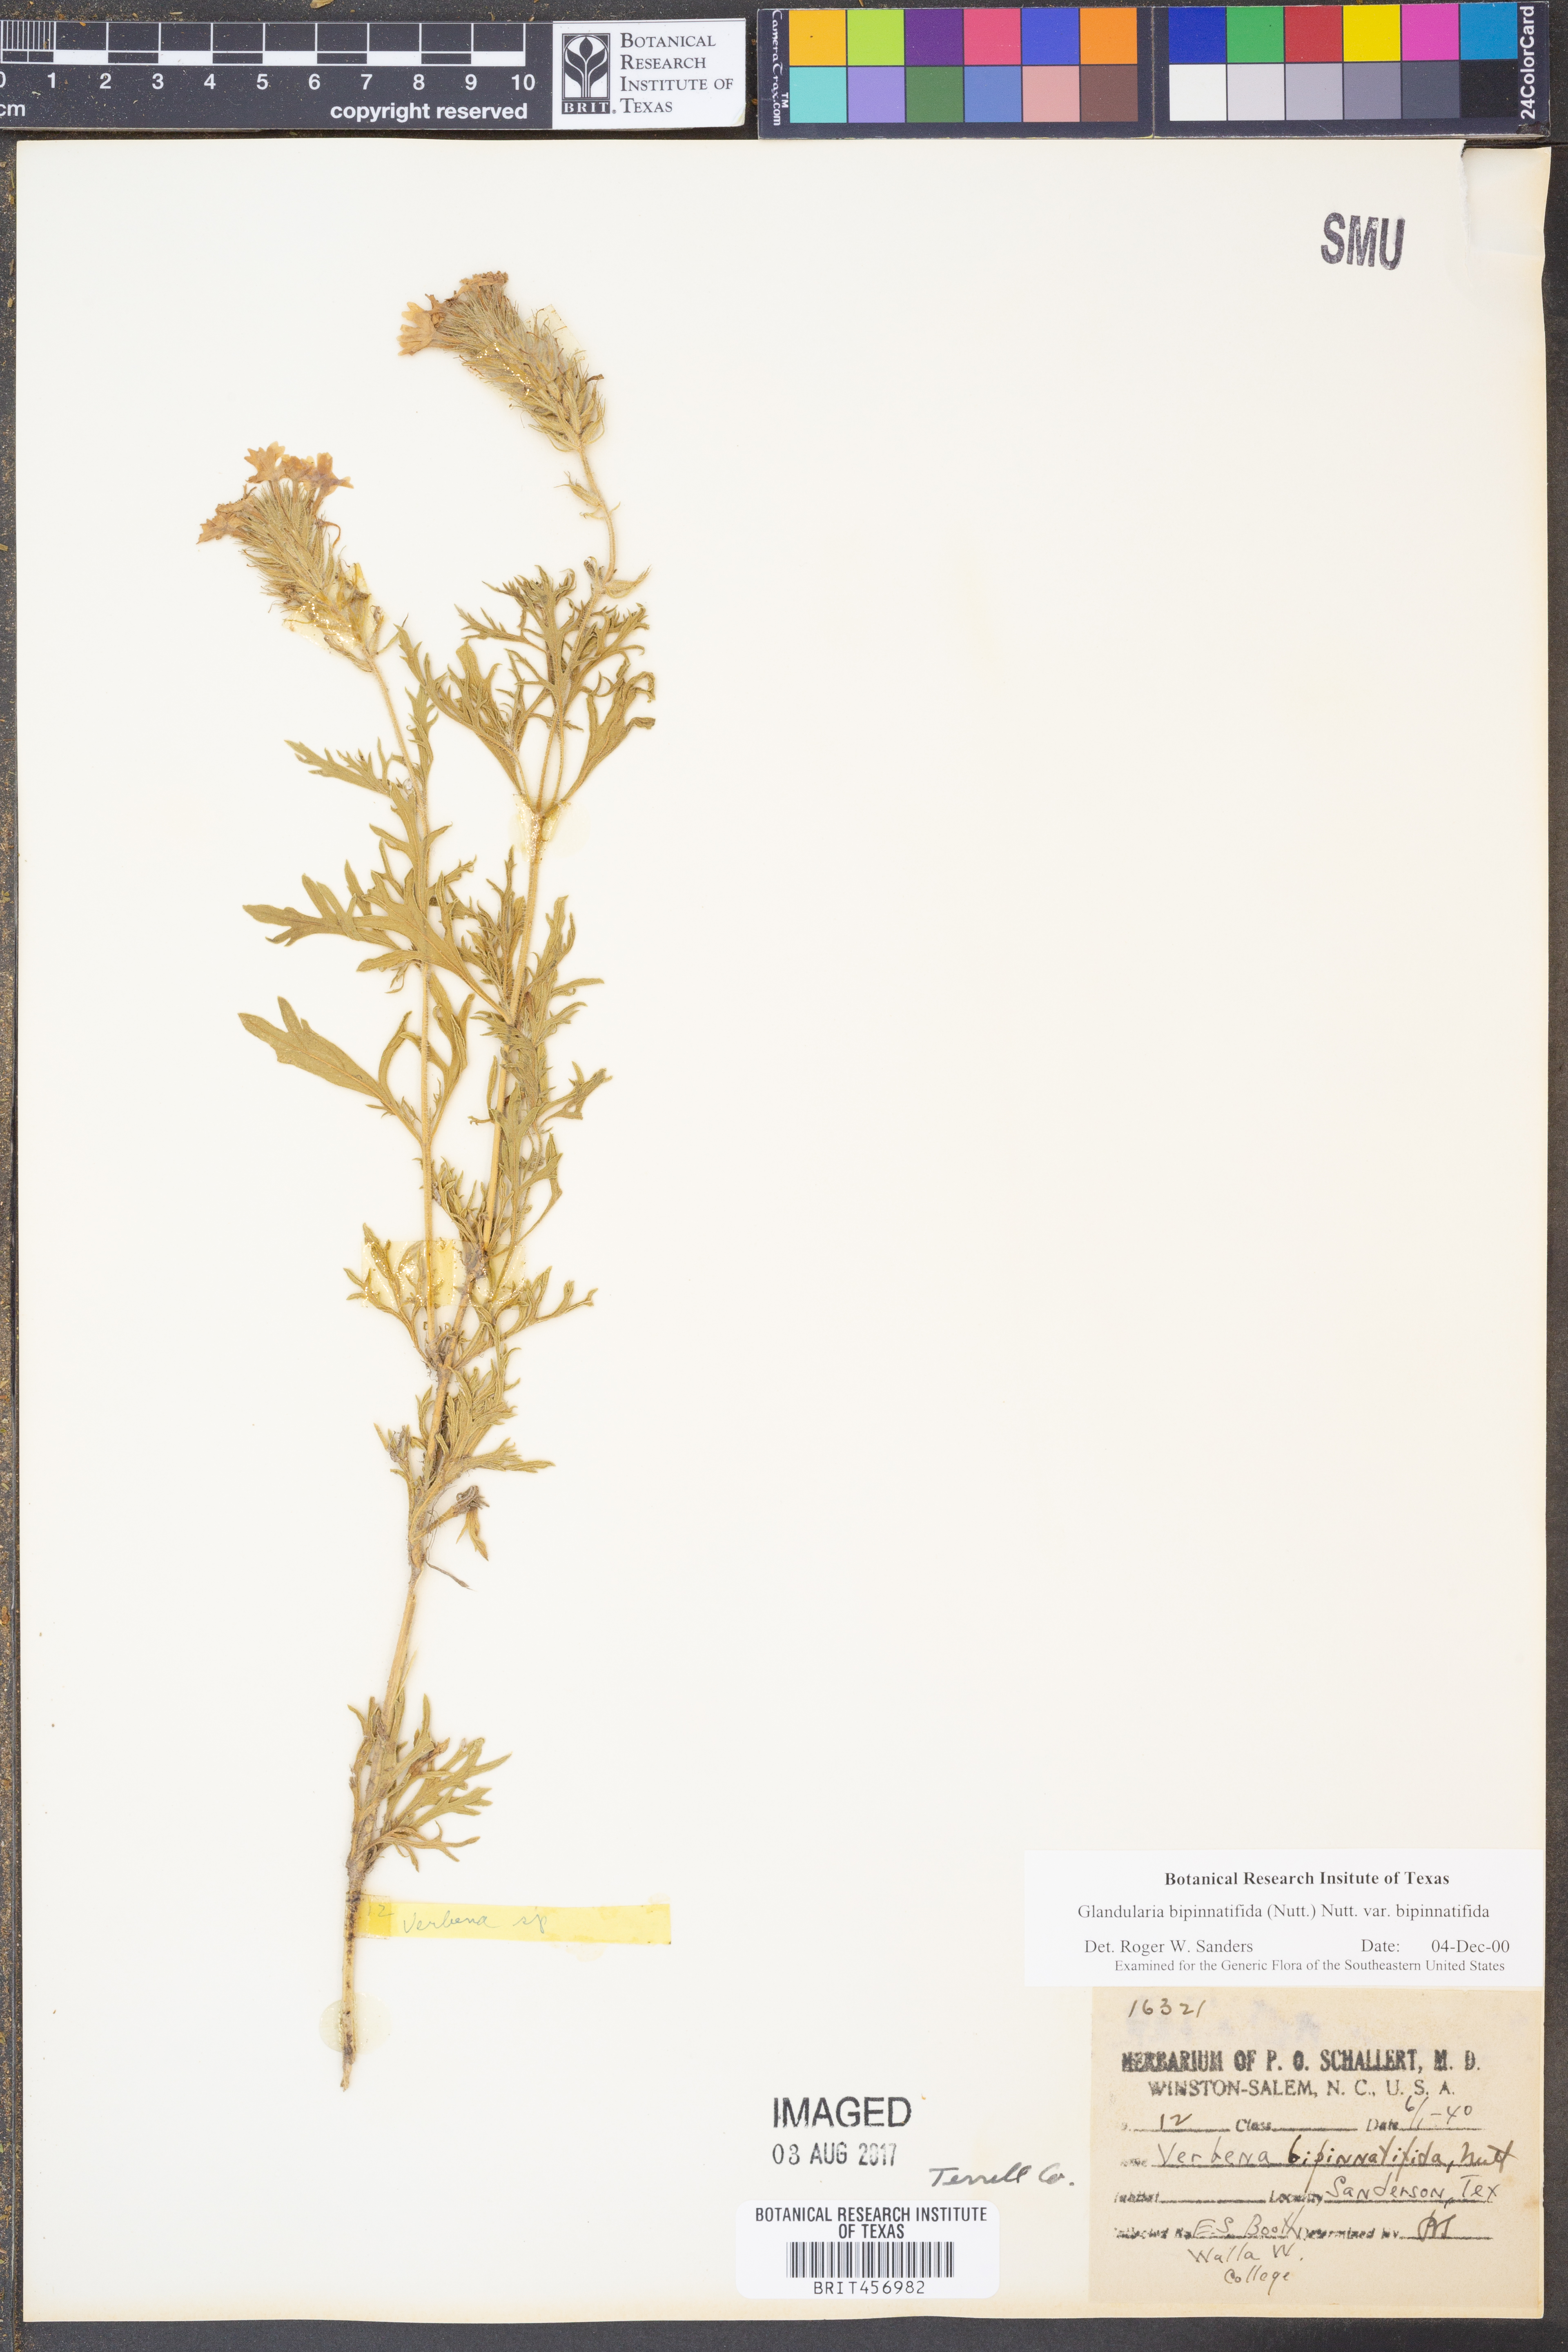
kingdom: Plantae
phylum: Tracheophyta
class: Magnoliopsida
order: Lamiales
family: Verbenaceae
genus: Verbena
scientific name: Verbena bipinnatifida
